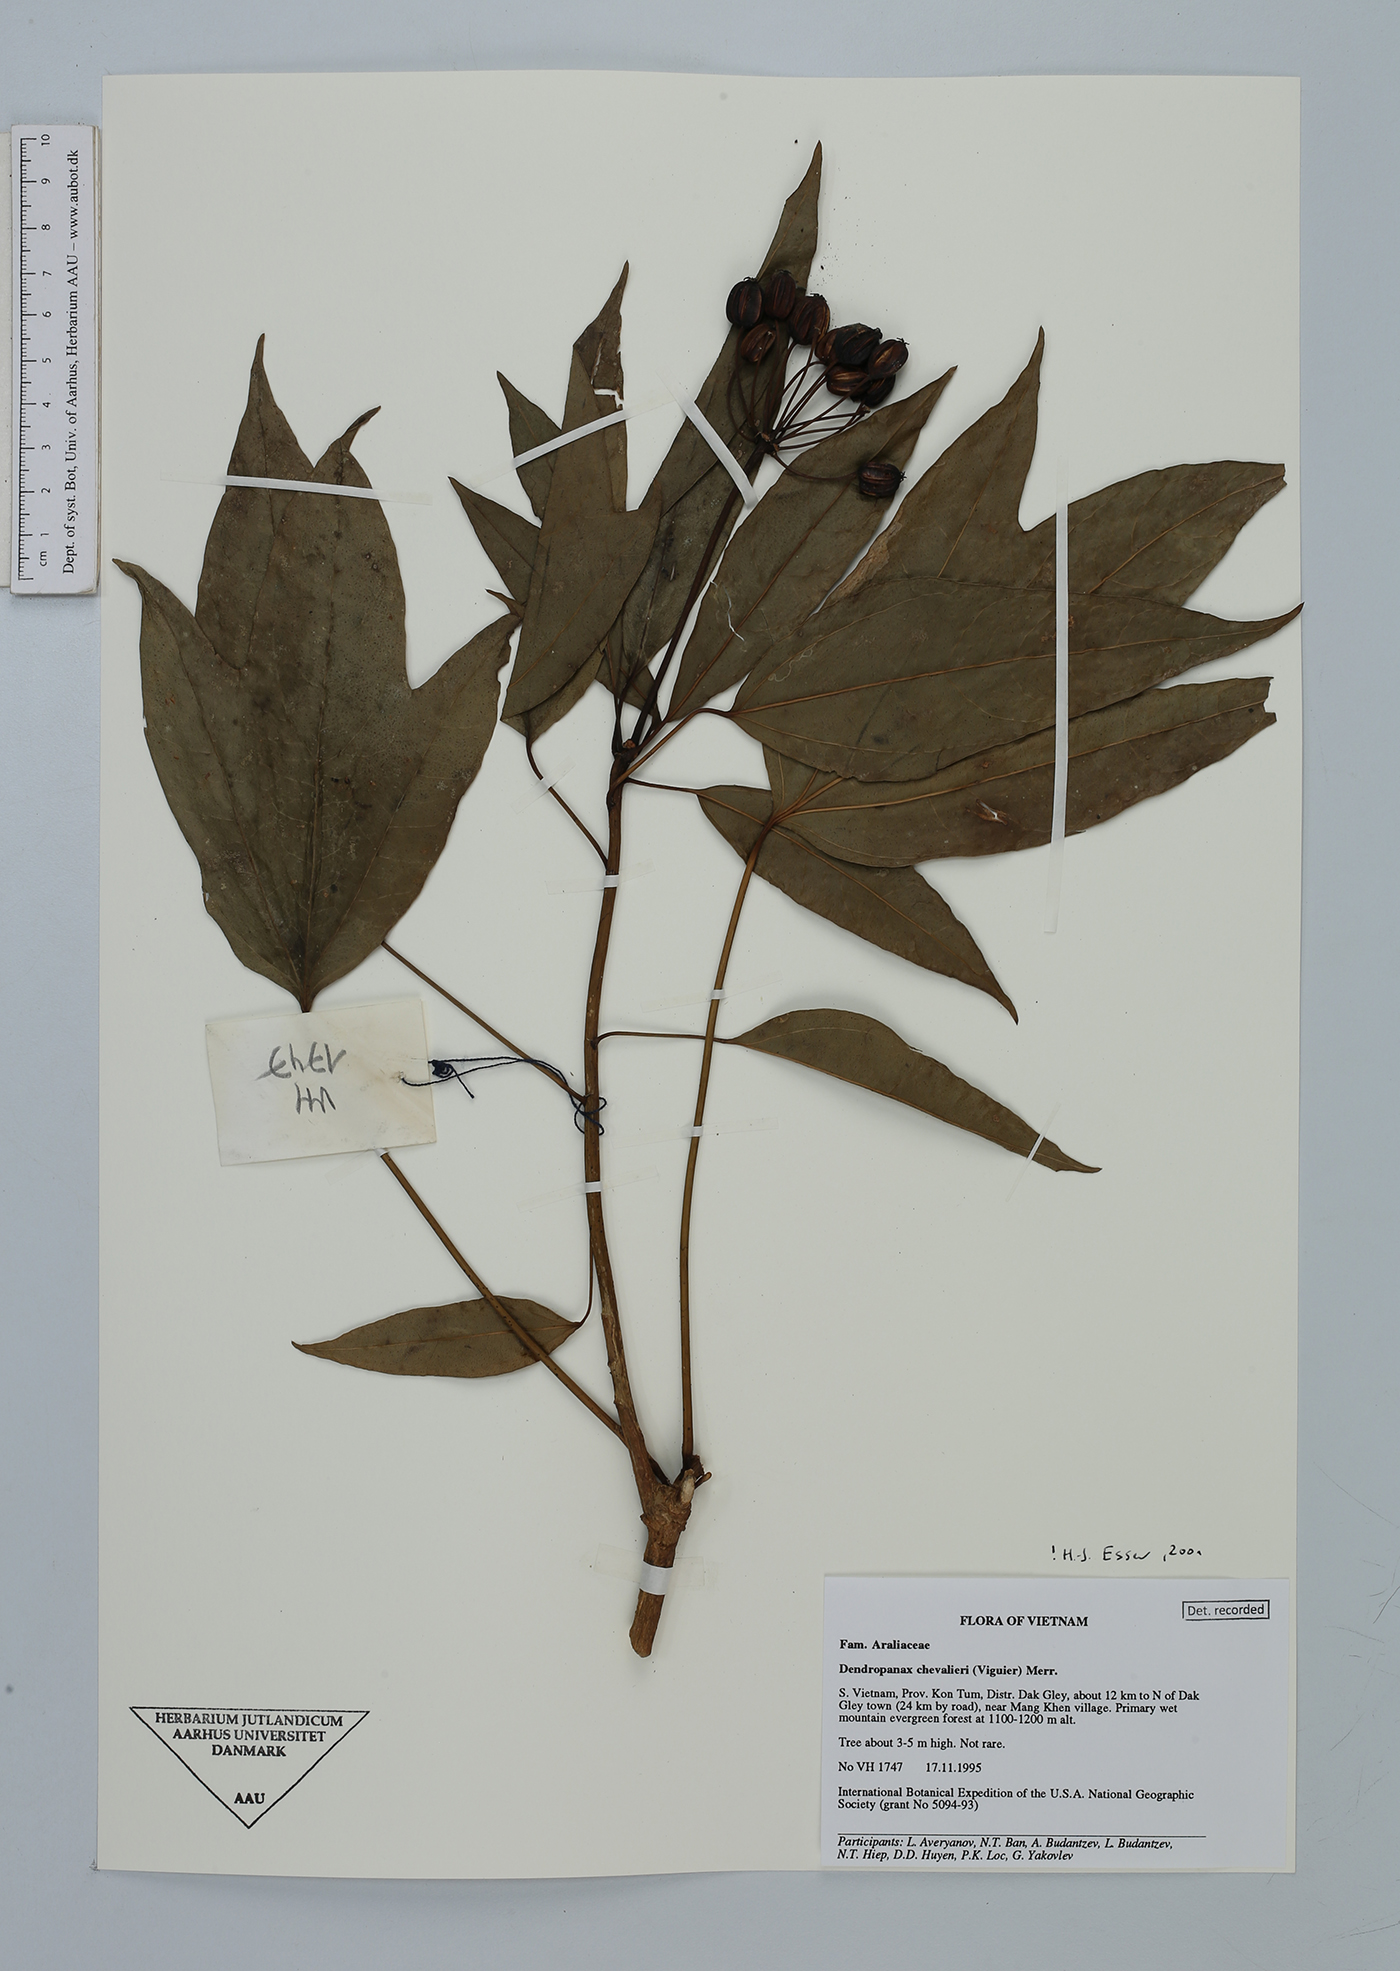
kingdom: Plantae
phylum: Tracheophyta
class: Magnoliopsida
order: Apiales
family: Araliaceae
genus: Dendropanax
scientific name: Dendropanax chevalieri
